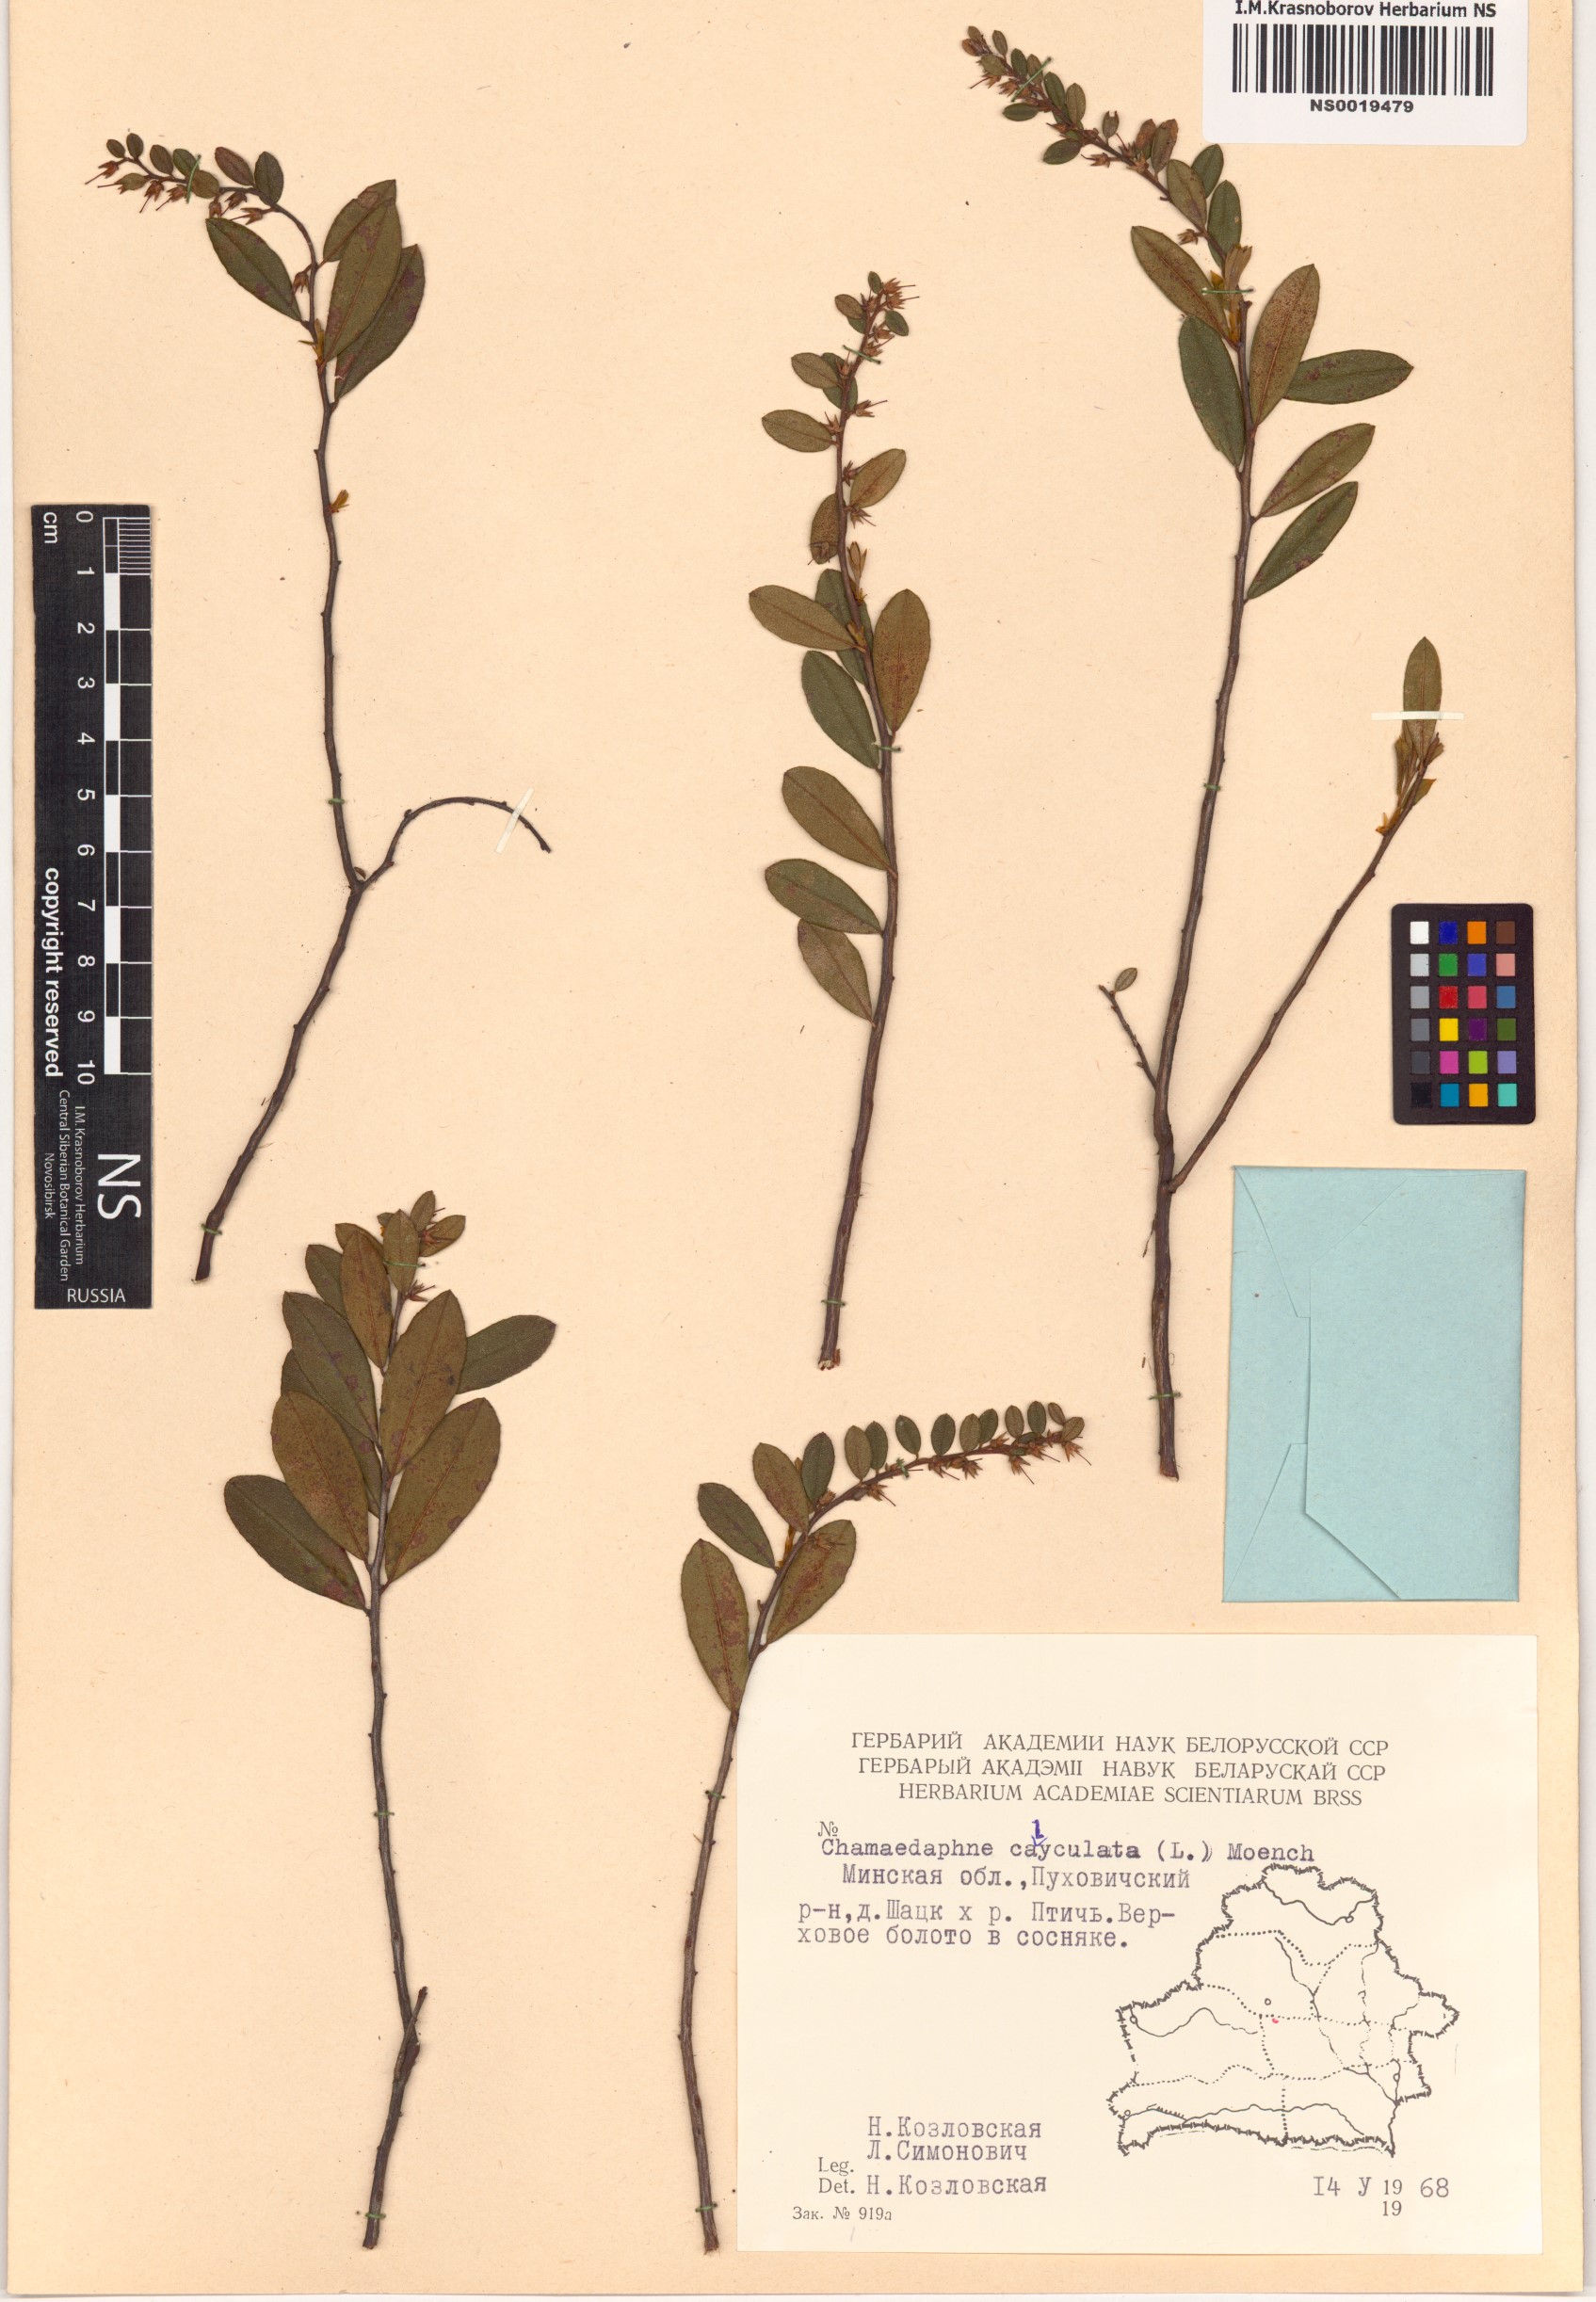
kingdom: Plantae
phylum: Tracheophyta
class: Magnoliopsida
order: Ericales
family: Ericaceae
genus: Chamaedaphne
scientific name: Chamaedaphne calyculata
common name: Leatherleaf
